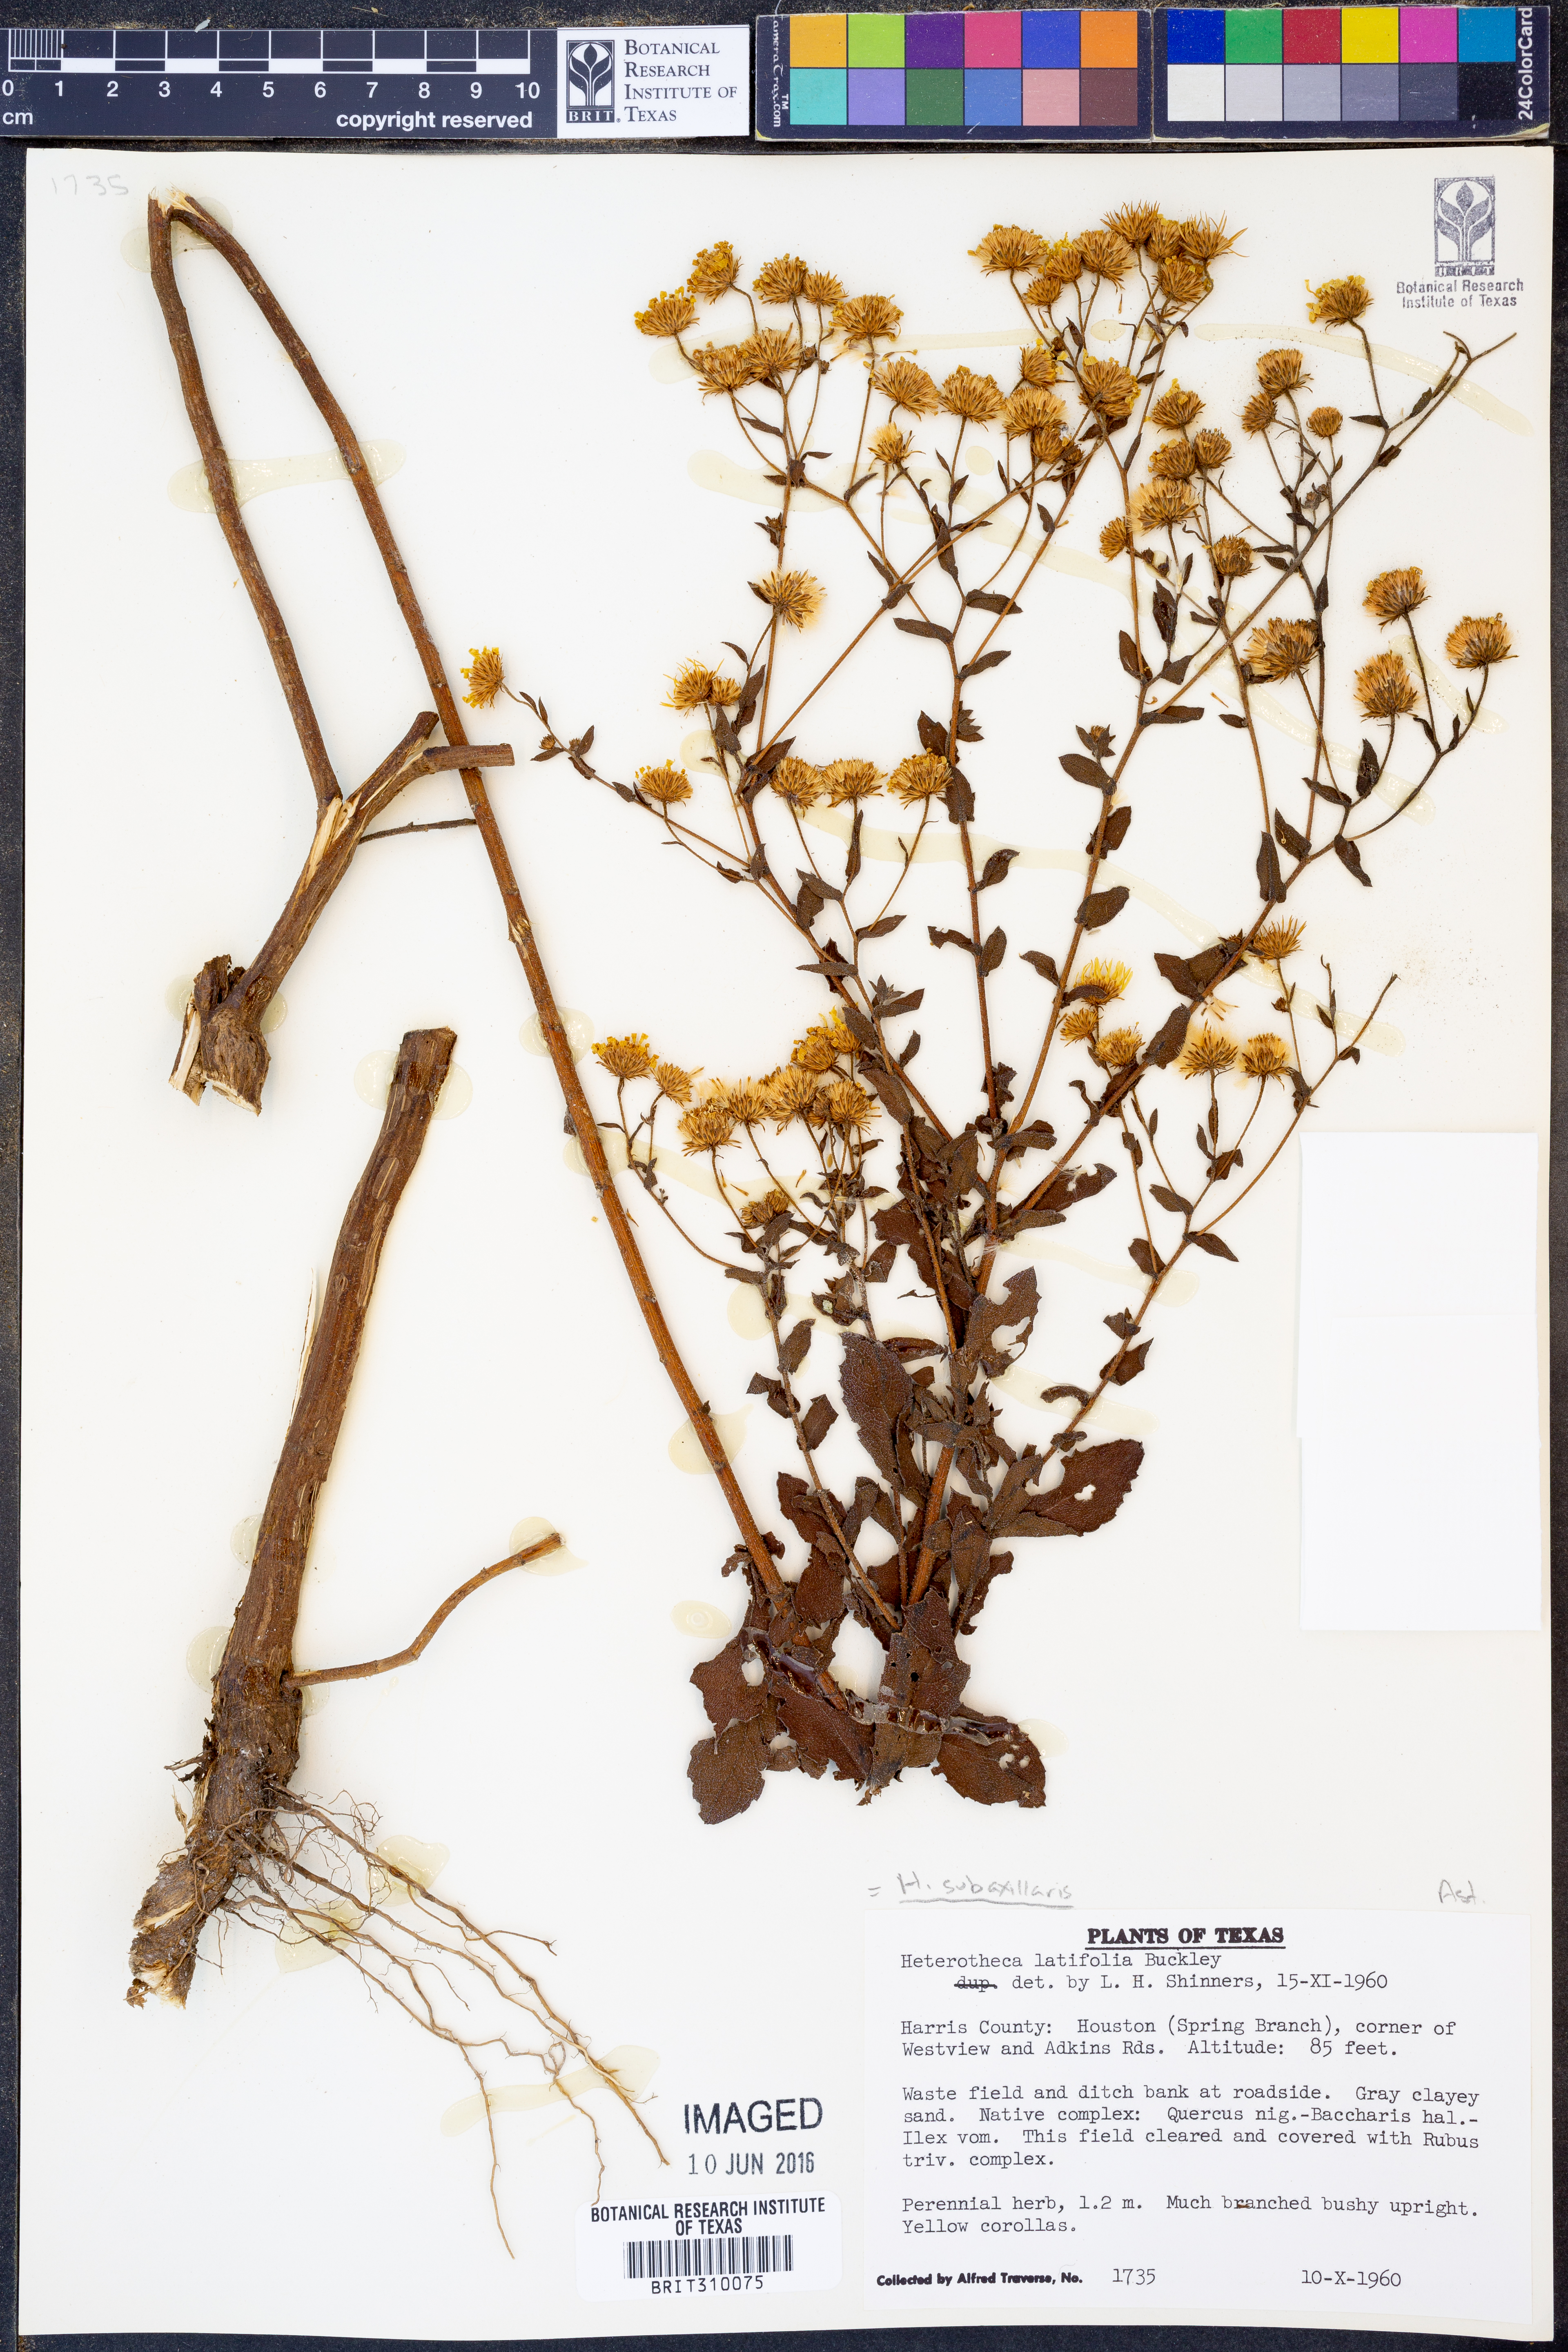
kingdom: Plantae
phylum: Tracheophyta
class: Magnoliopsida
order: Asterales
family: Asteraceae
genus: Heterotheca
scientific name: Heterotheca subaxillaris
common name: Camphorweed
